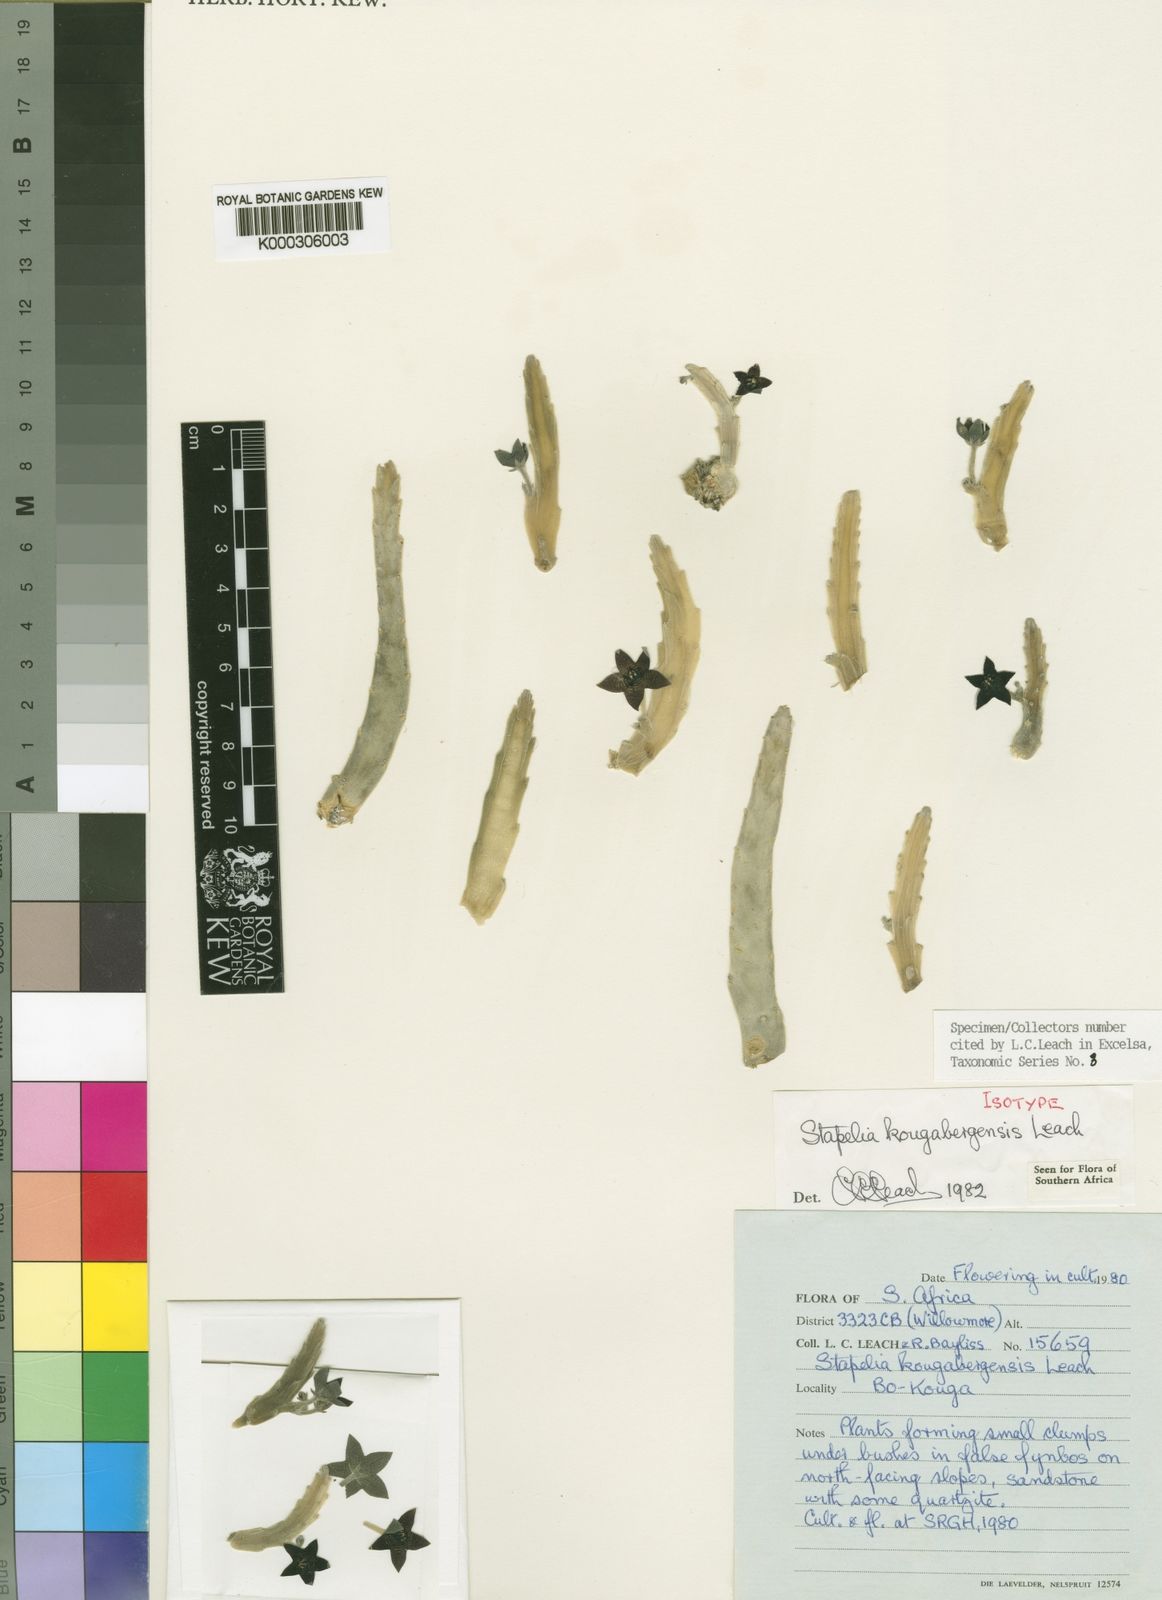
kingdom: Plantae
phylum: Tracheophyta
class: Magnoliopsida
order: Gentianales
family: Apocynaceae
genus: Ceropegia
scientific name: Ceropegia paniculata
